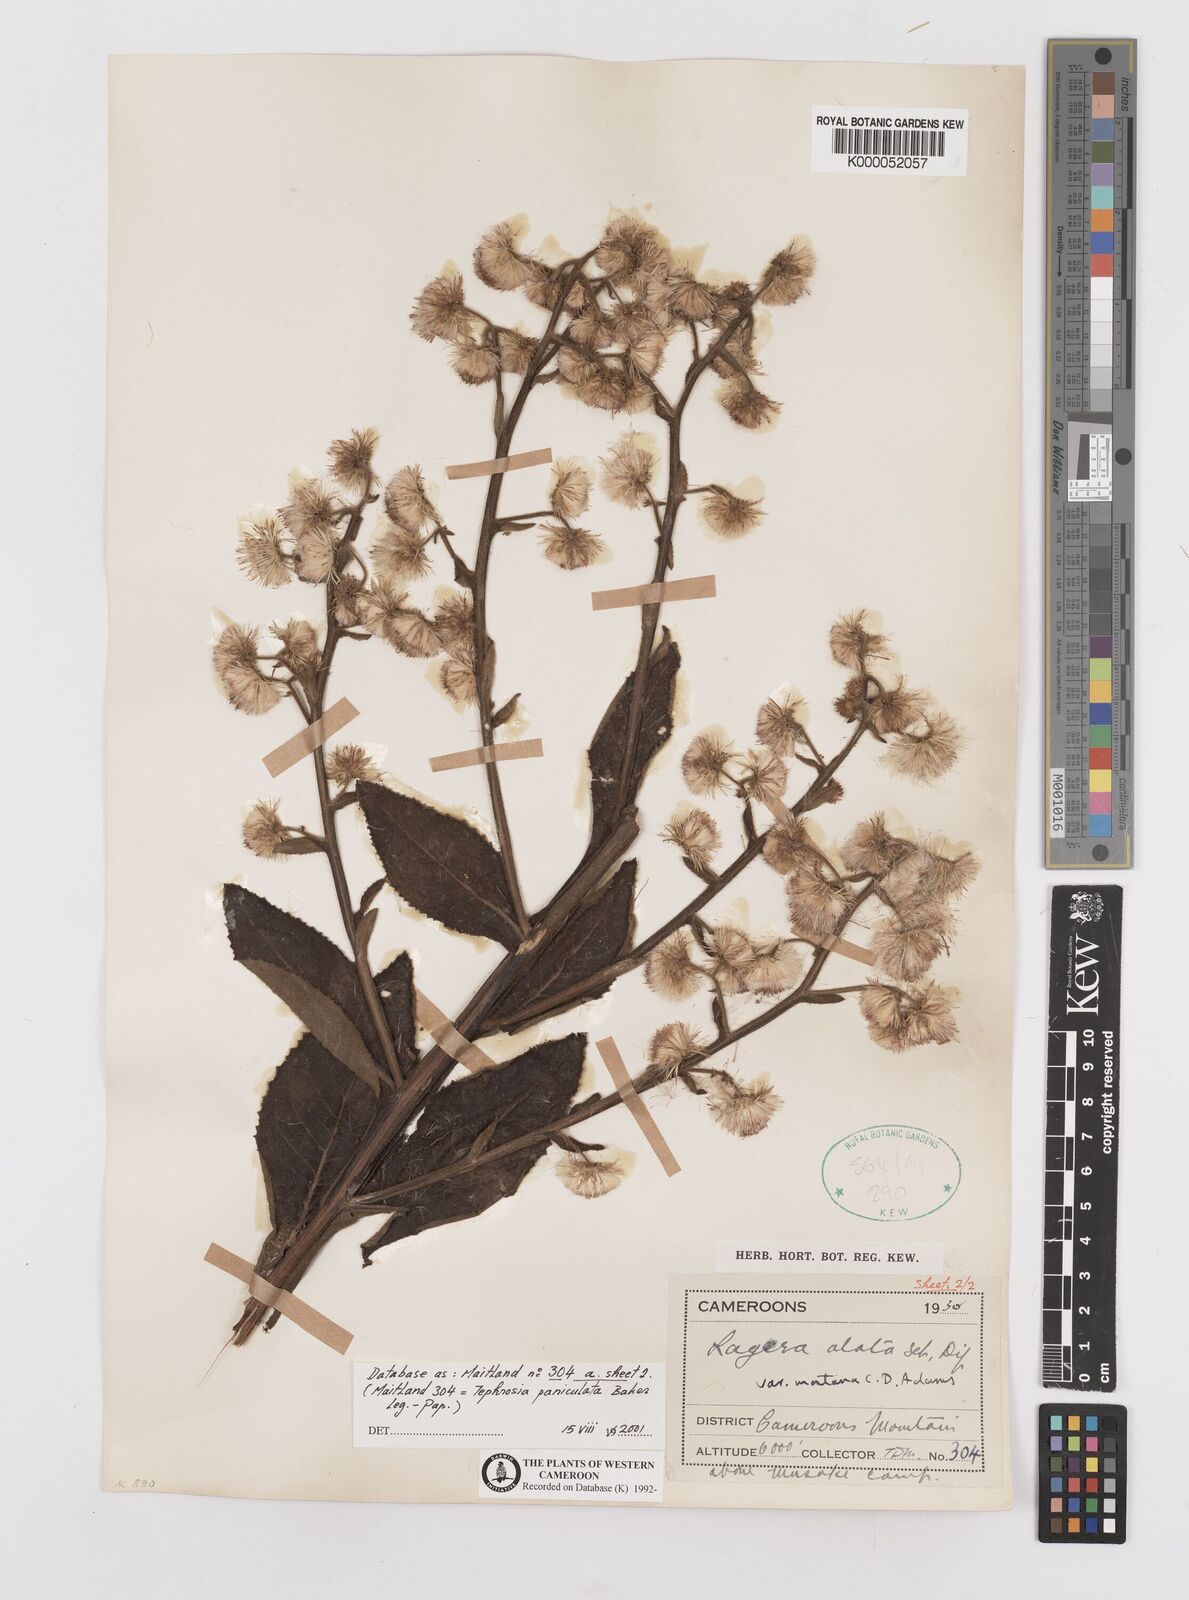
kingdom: Plantae
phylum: Tracheophyta
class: Magnoliopsida
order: Asterales
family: Asteraceae
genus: Laggera
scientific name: Laggera crispata
